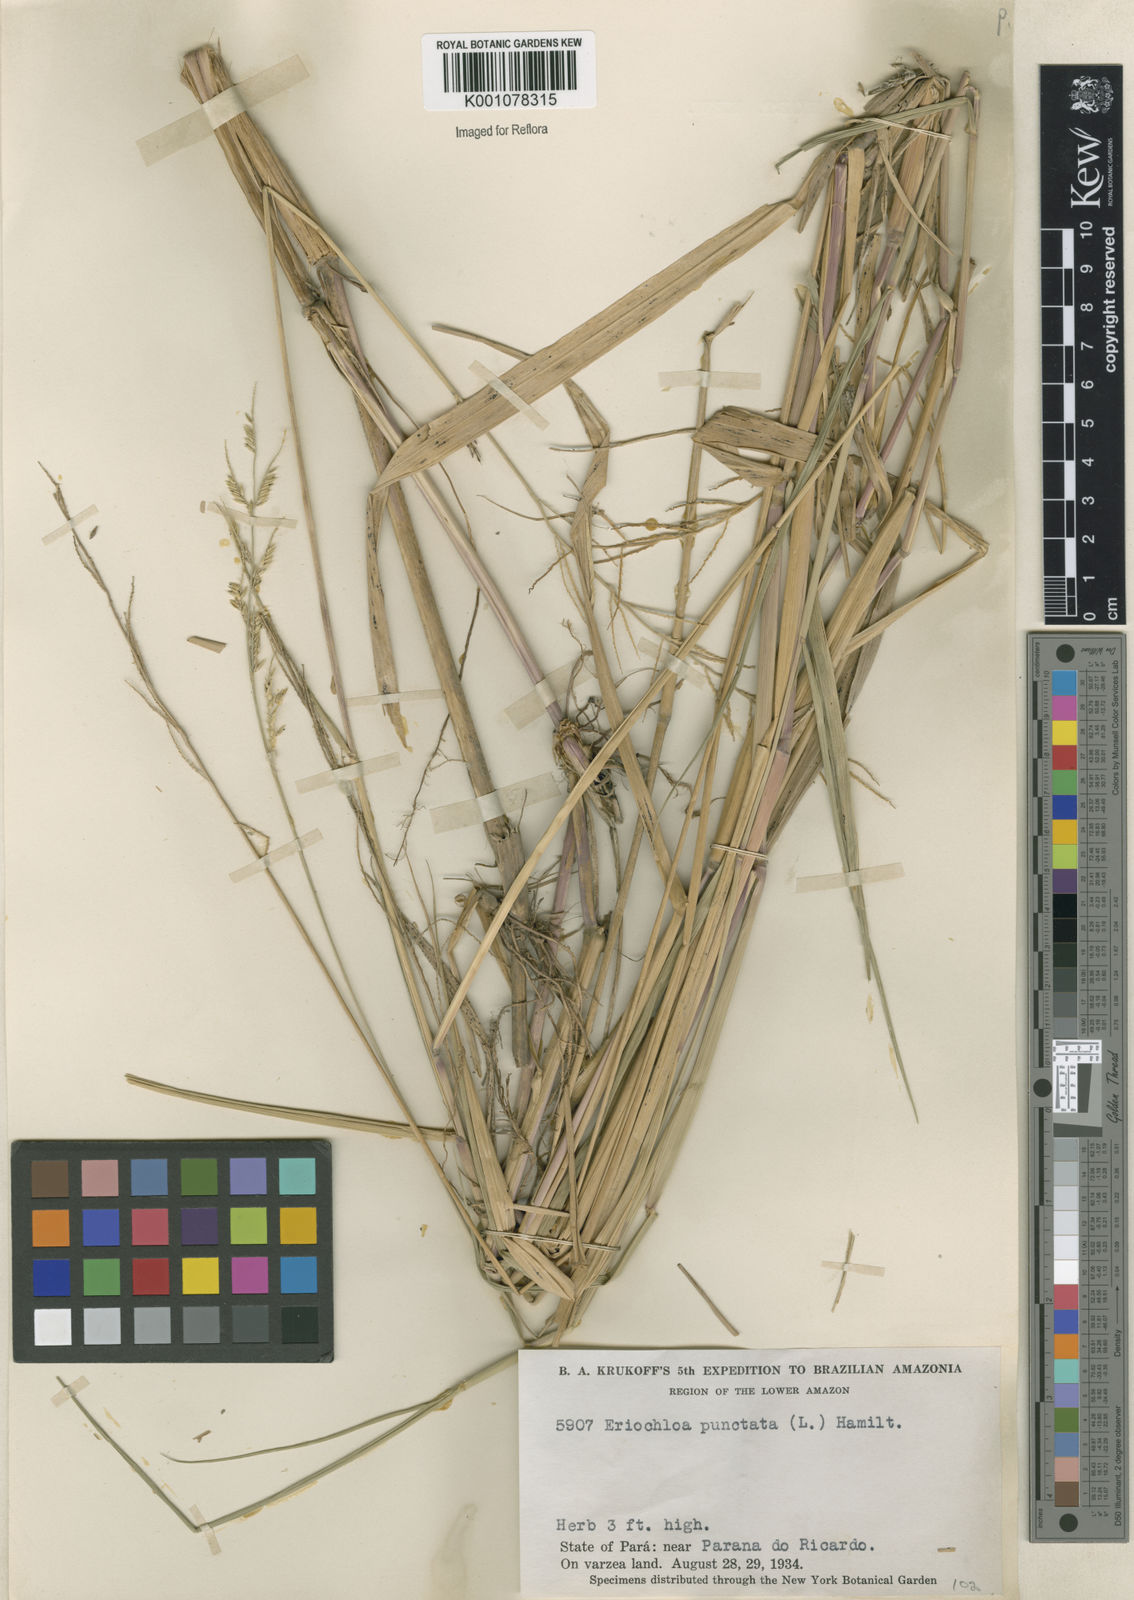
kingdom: Plantae
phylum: Tracheophyta
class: Liliopsida
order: Poales
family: Poaceae
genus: Eriochloa
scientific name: Eriochloa punctata
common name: Louisiana cupgrass
